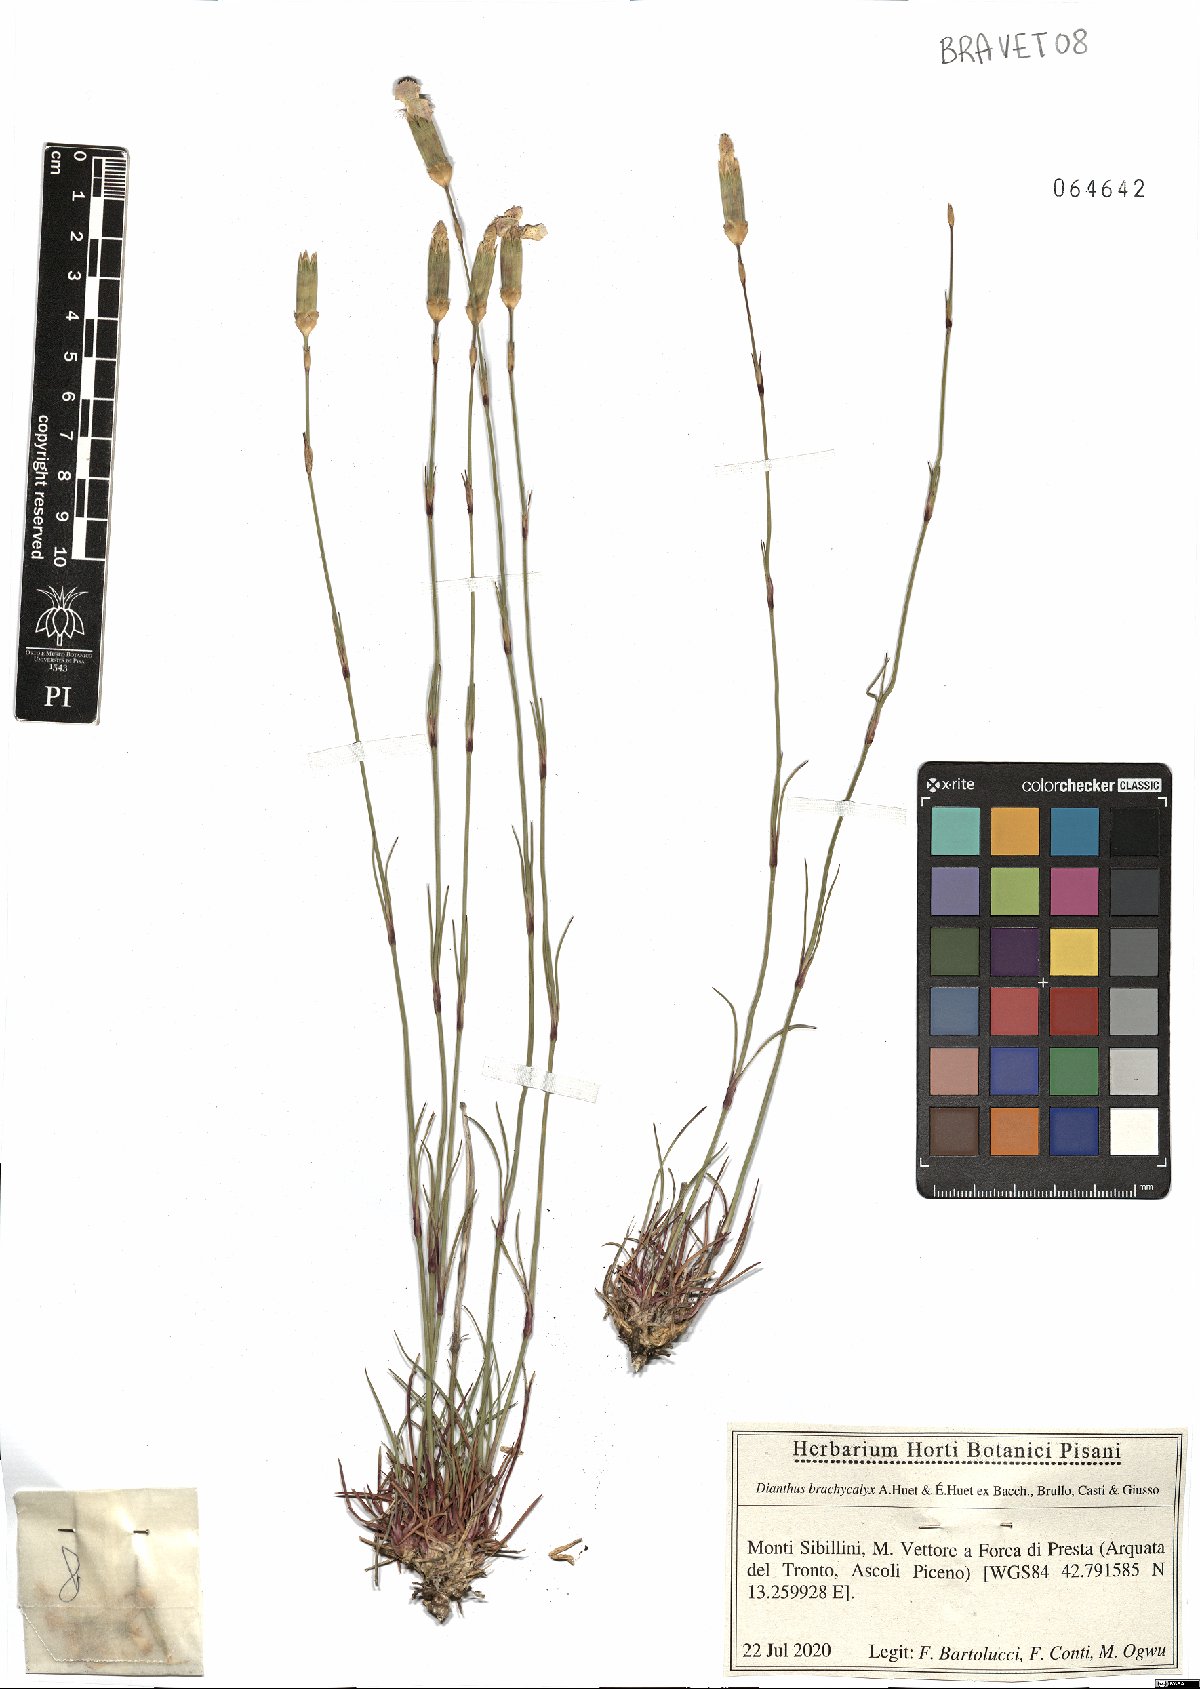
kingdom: Plantae
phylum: Tracheophyta
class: Magnoliopsida
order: Caryophyllales
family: Caryophyllaceae
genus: Dianthus
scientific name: Dianthus brachycalyx
